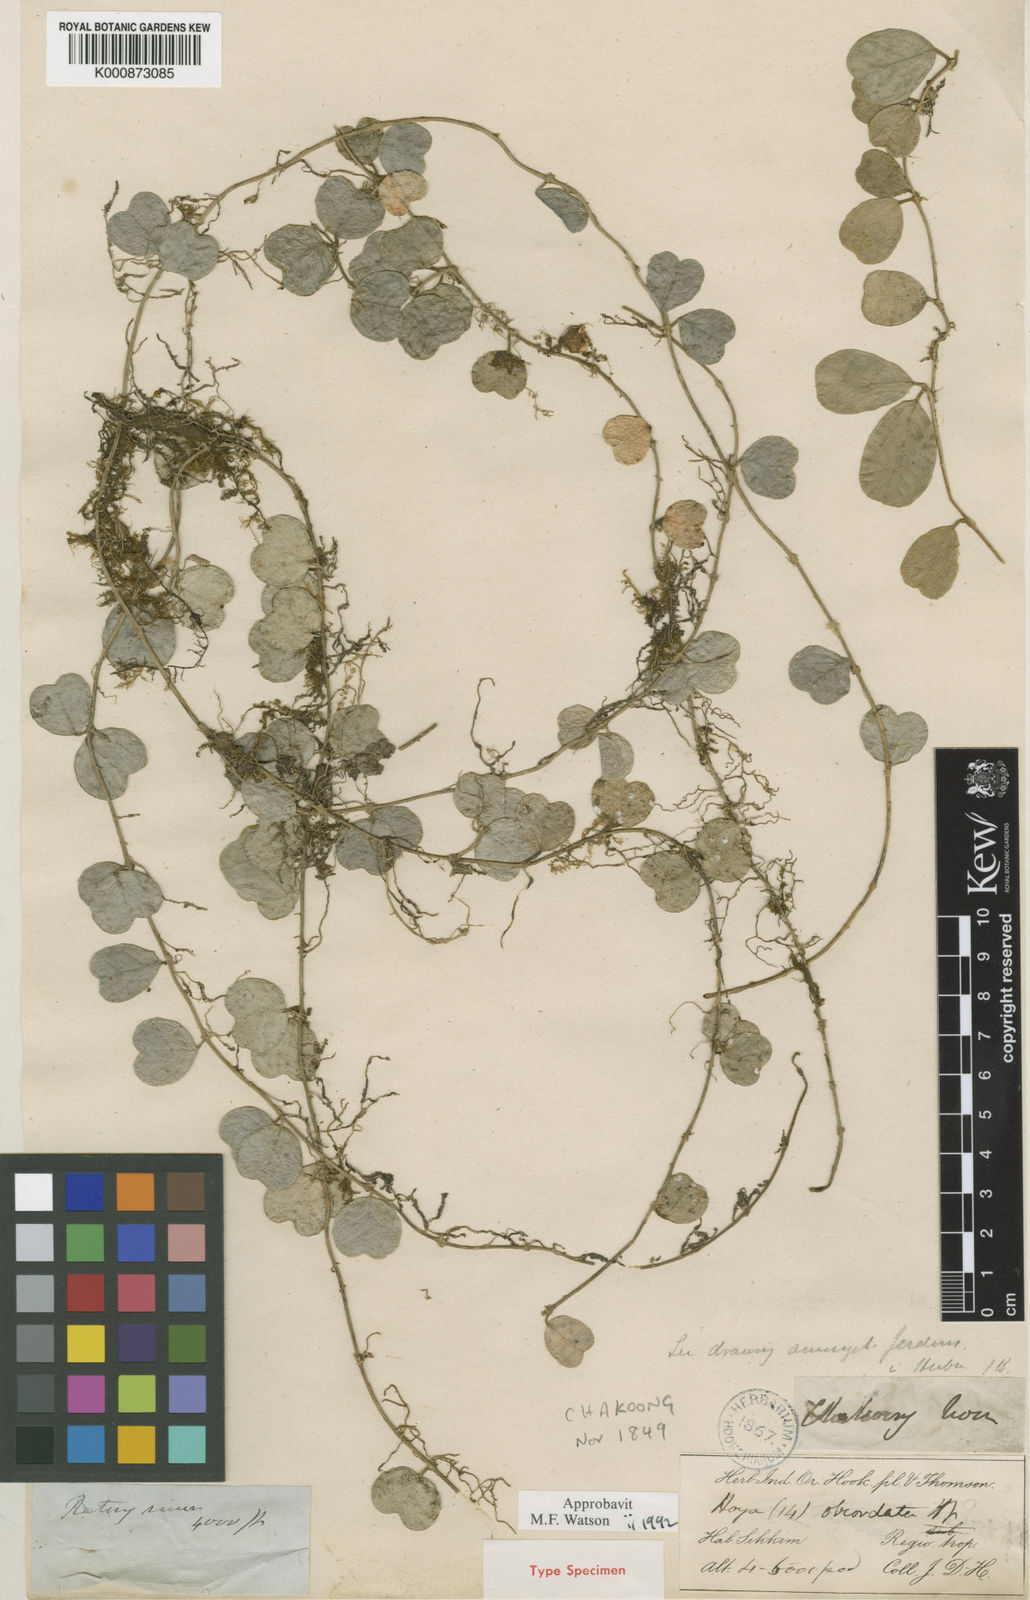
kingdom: Plantae
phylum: Tracheophyta
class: Magnoliopsida
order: Gentianales
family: Apocynaceae
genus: Hoya
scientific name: Hoya obcordata
